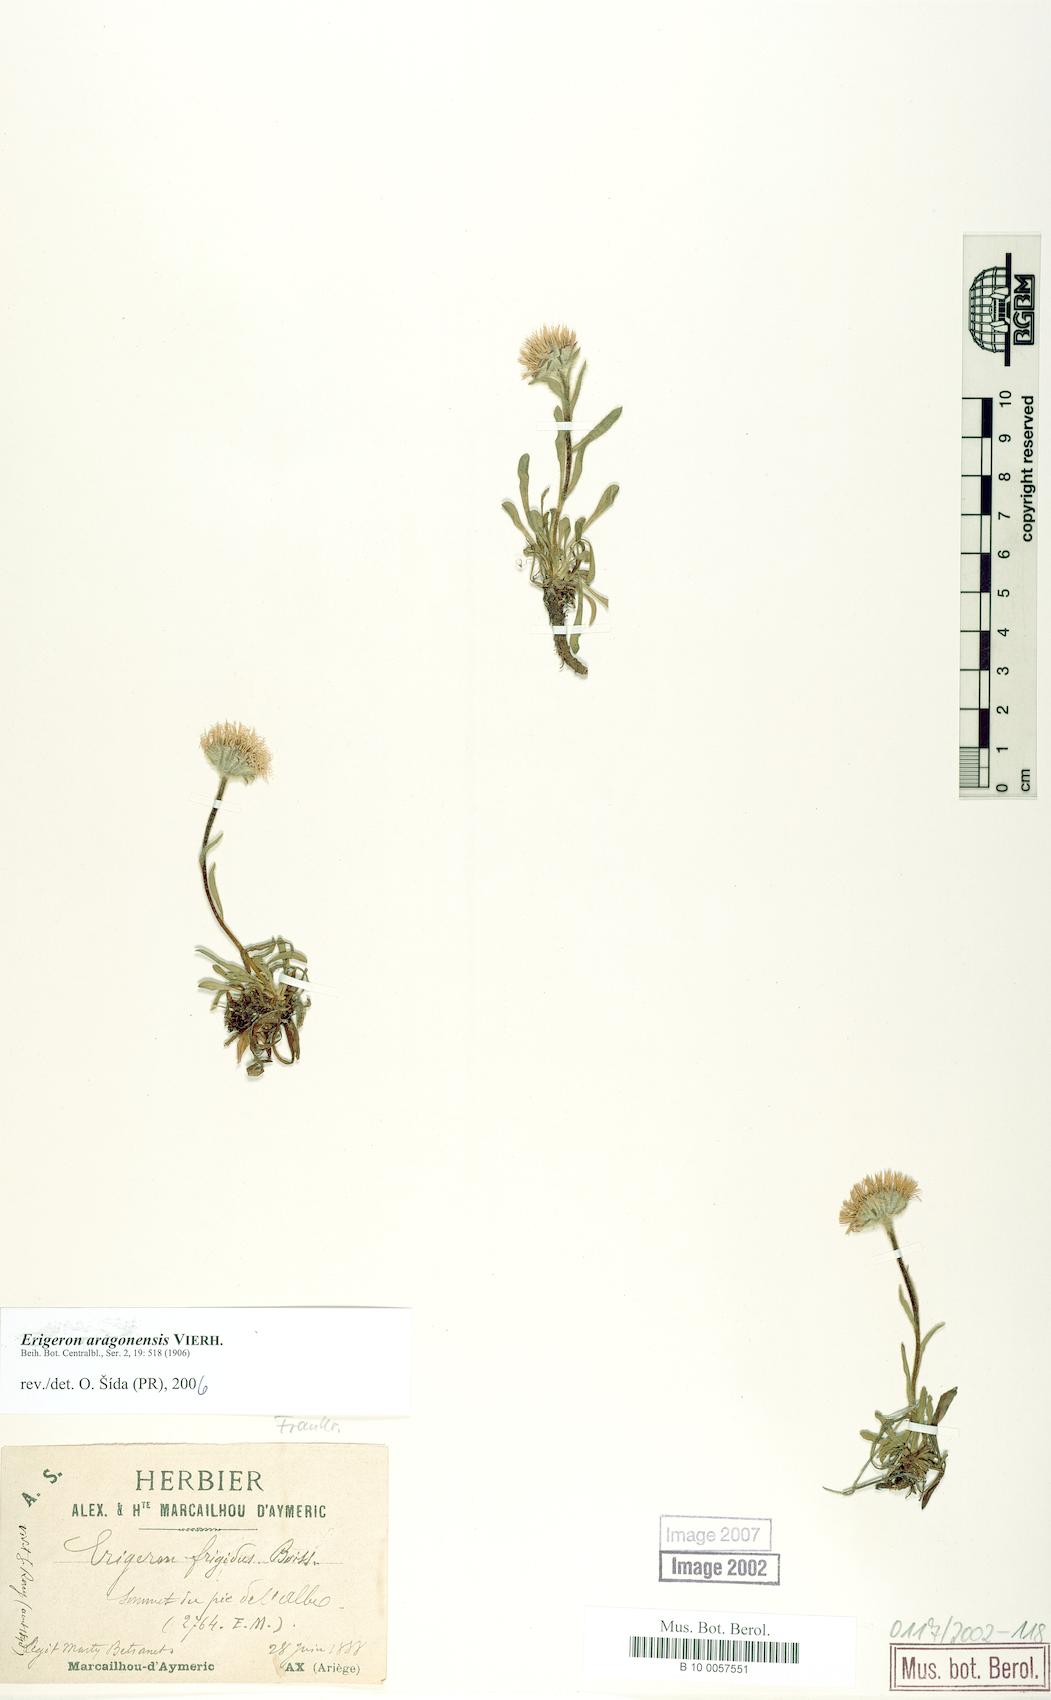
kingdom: Plantae
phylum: Tracheophyta
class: Magnoliopsida
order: Asterales
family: Asteraceae
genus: Erigeron
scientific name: Erigeron aragonensis
